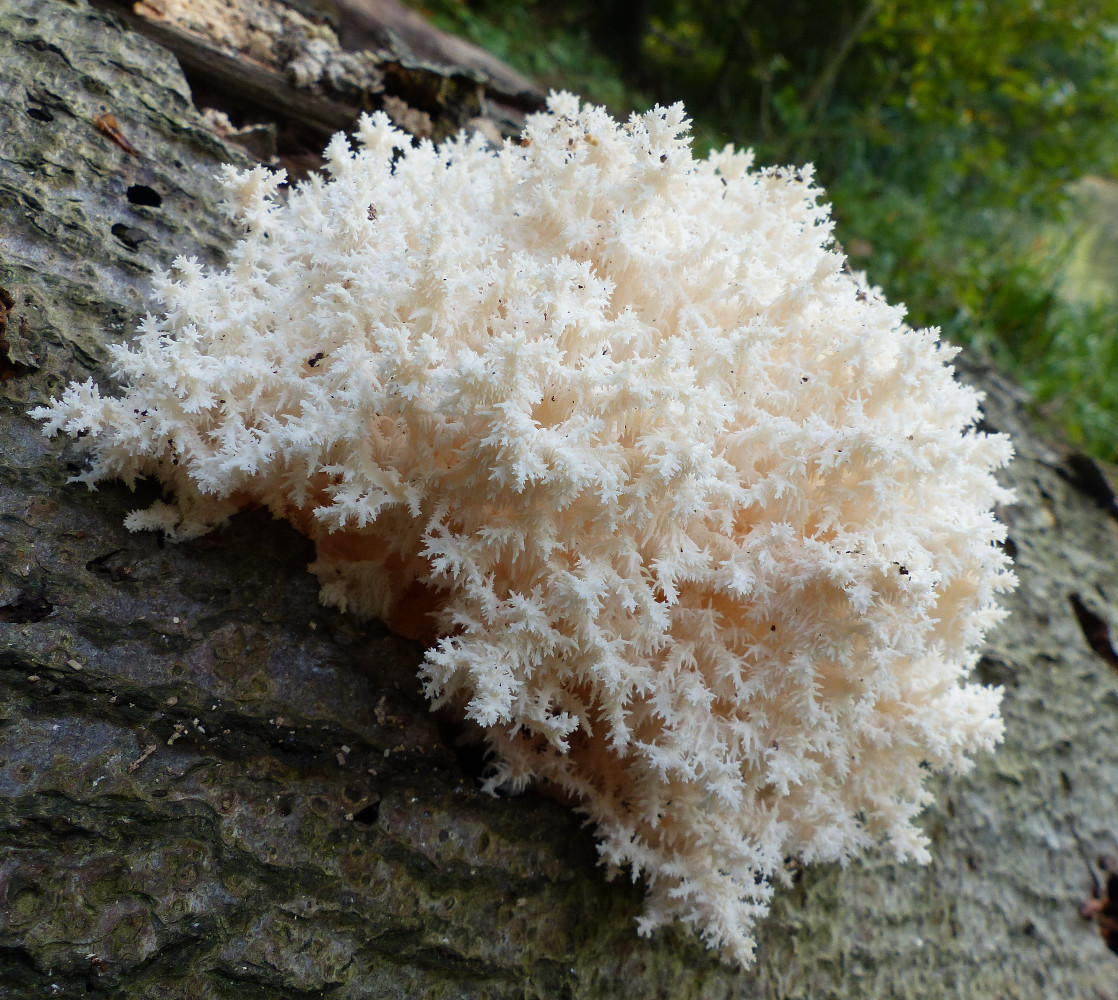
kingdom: Fungi
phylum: Basidiomycota
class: Agaricomycetes
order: Russulales
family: Hericiaceae
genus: Hericium
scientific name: Hericium coralloides
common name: koralpigsvamp
